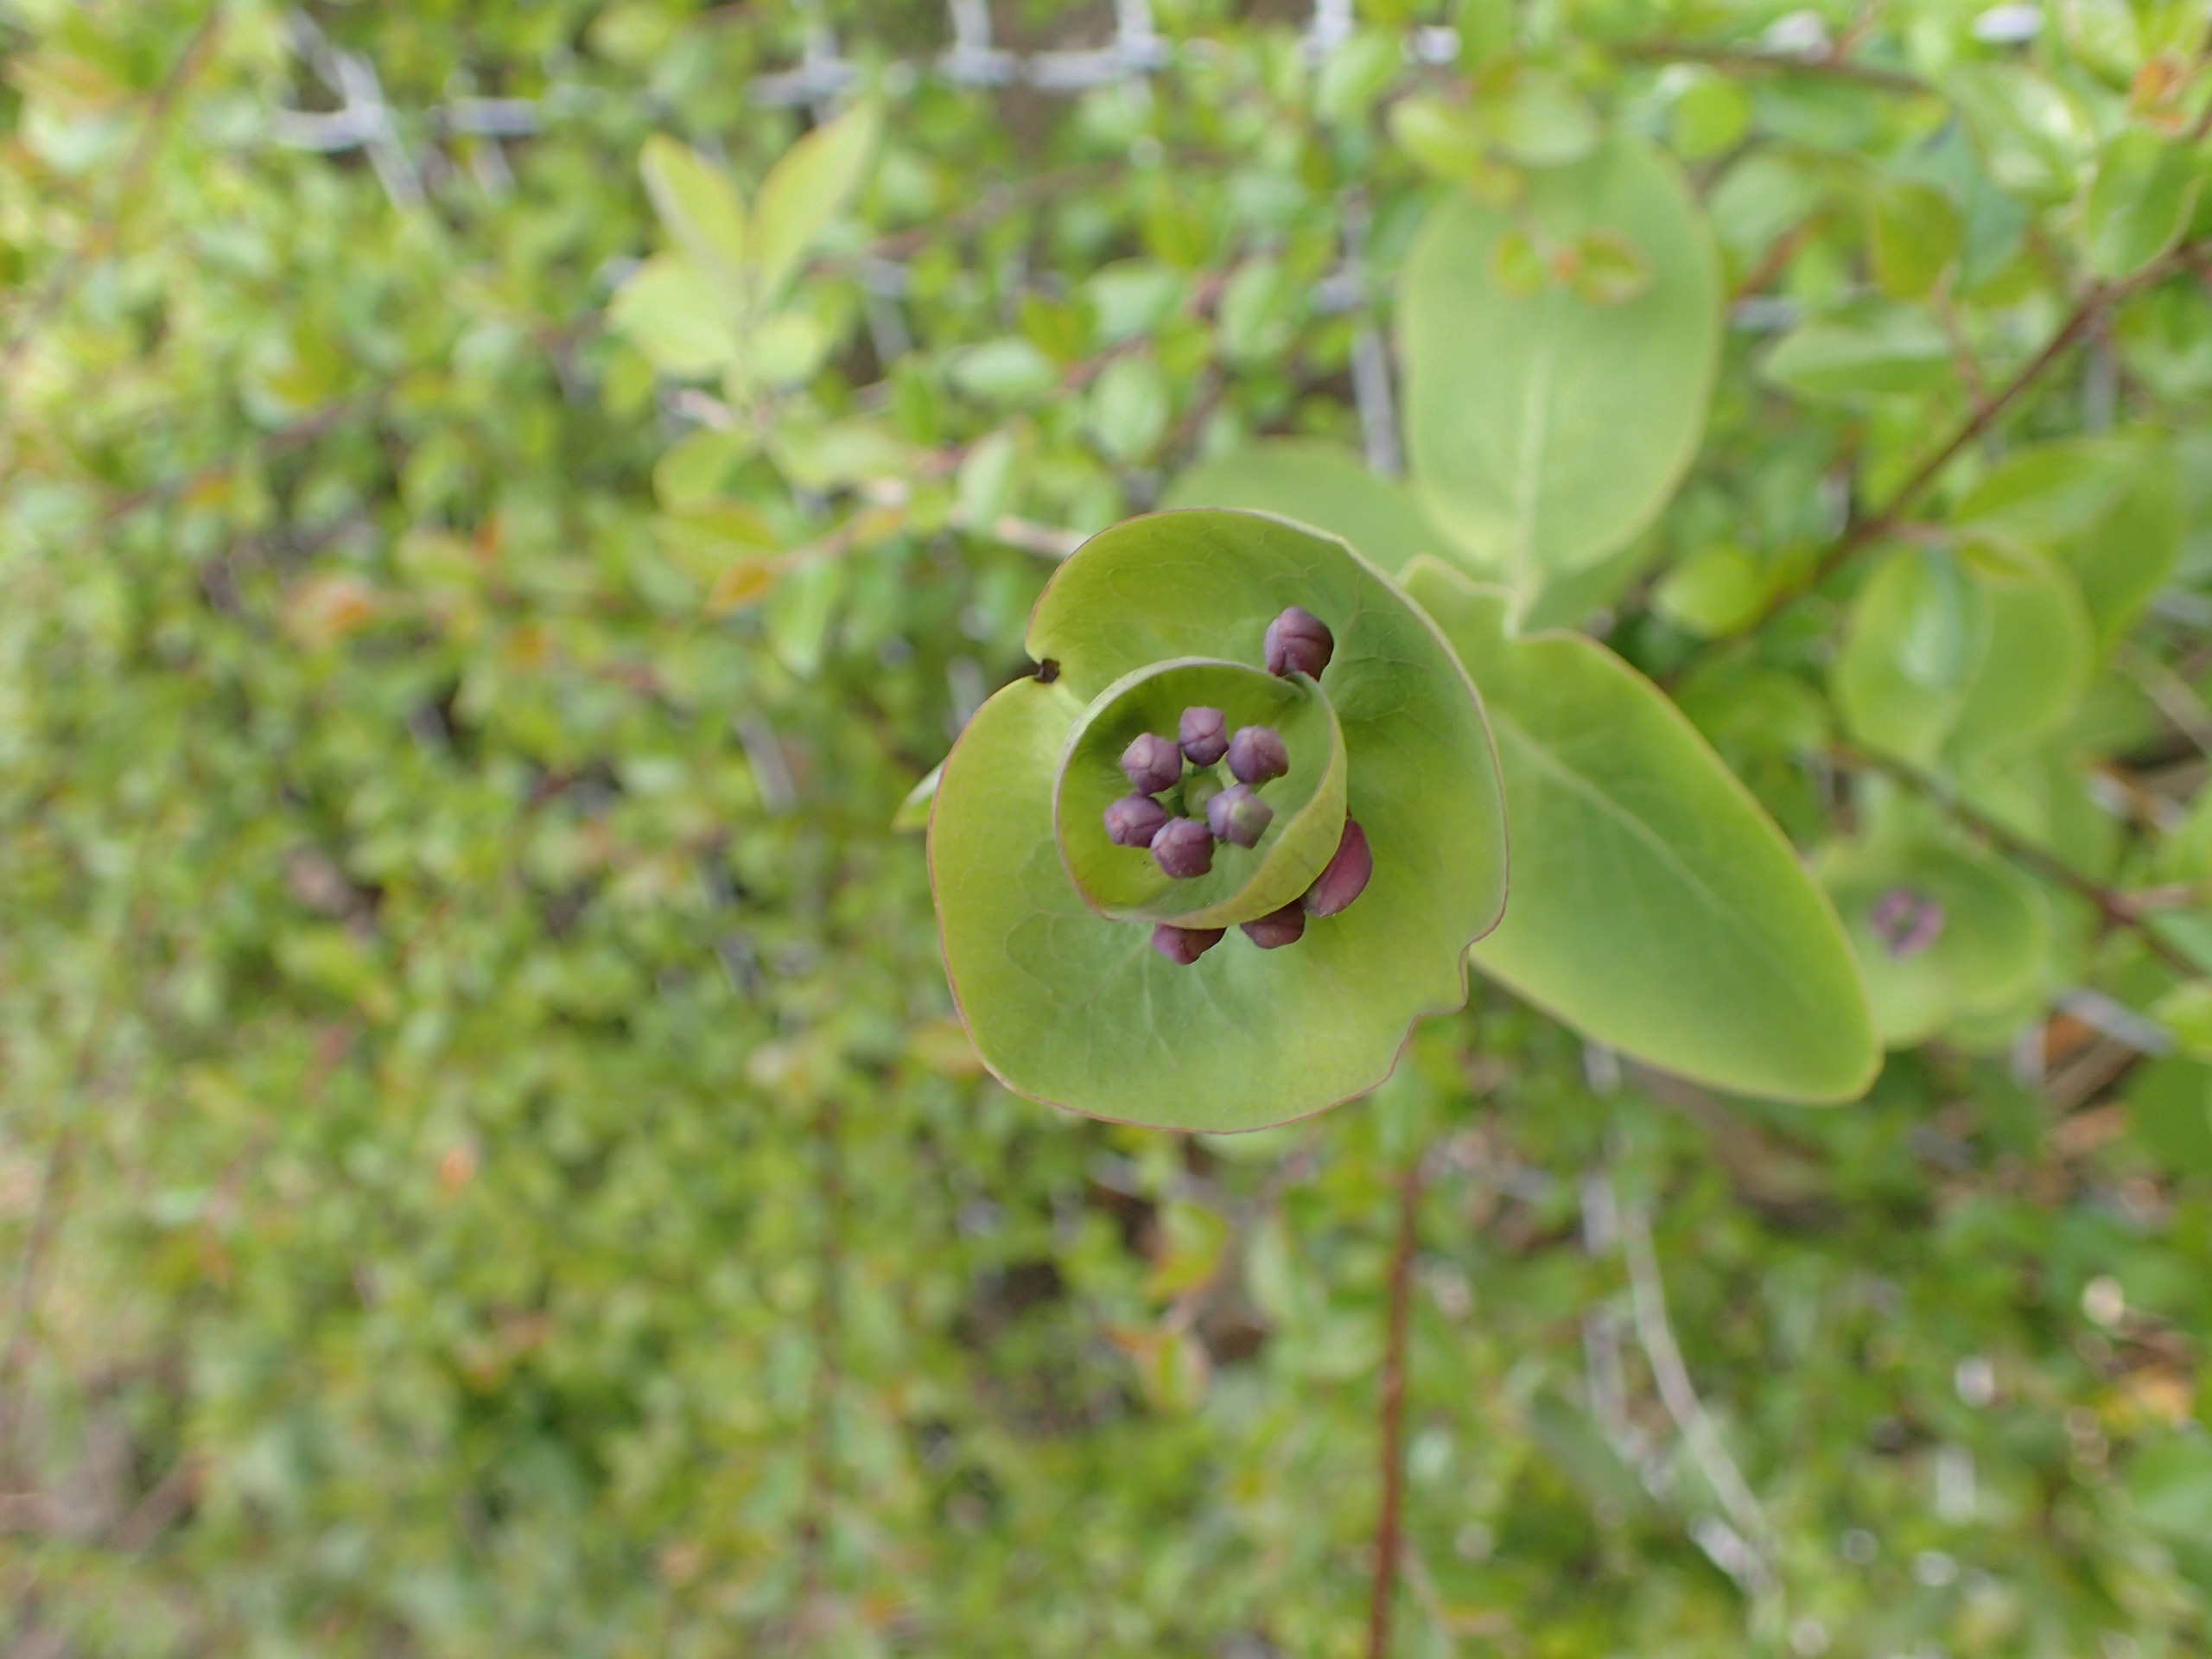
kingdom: Plantae
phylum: Tracheophyta
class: Magnoliopsida
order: Dipsacales
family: Caprifoliaceae
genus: Lonicera
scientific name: Lonicera caprifolium
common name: Ægte kaprifolie
